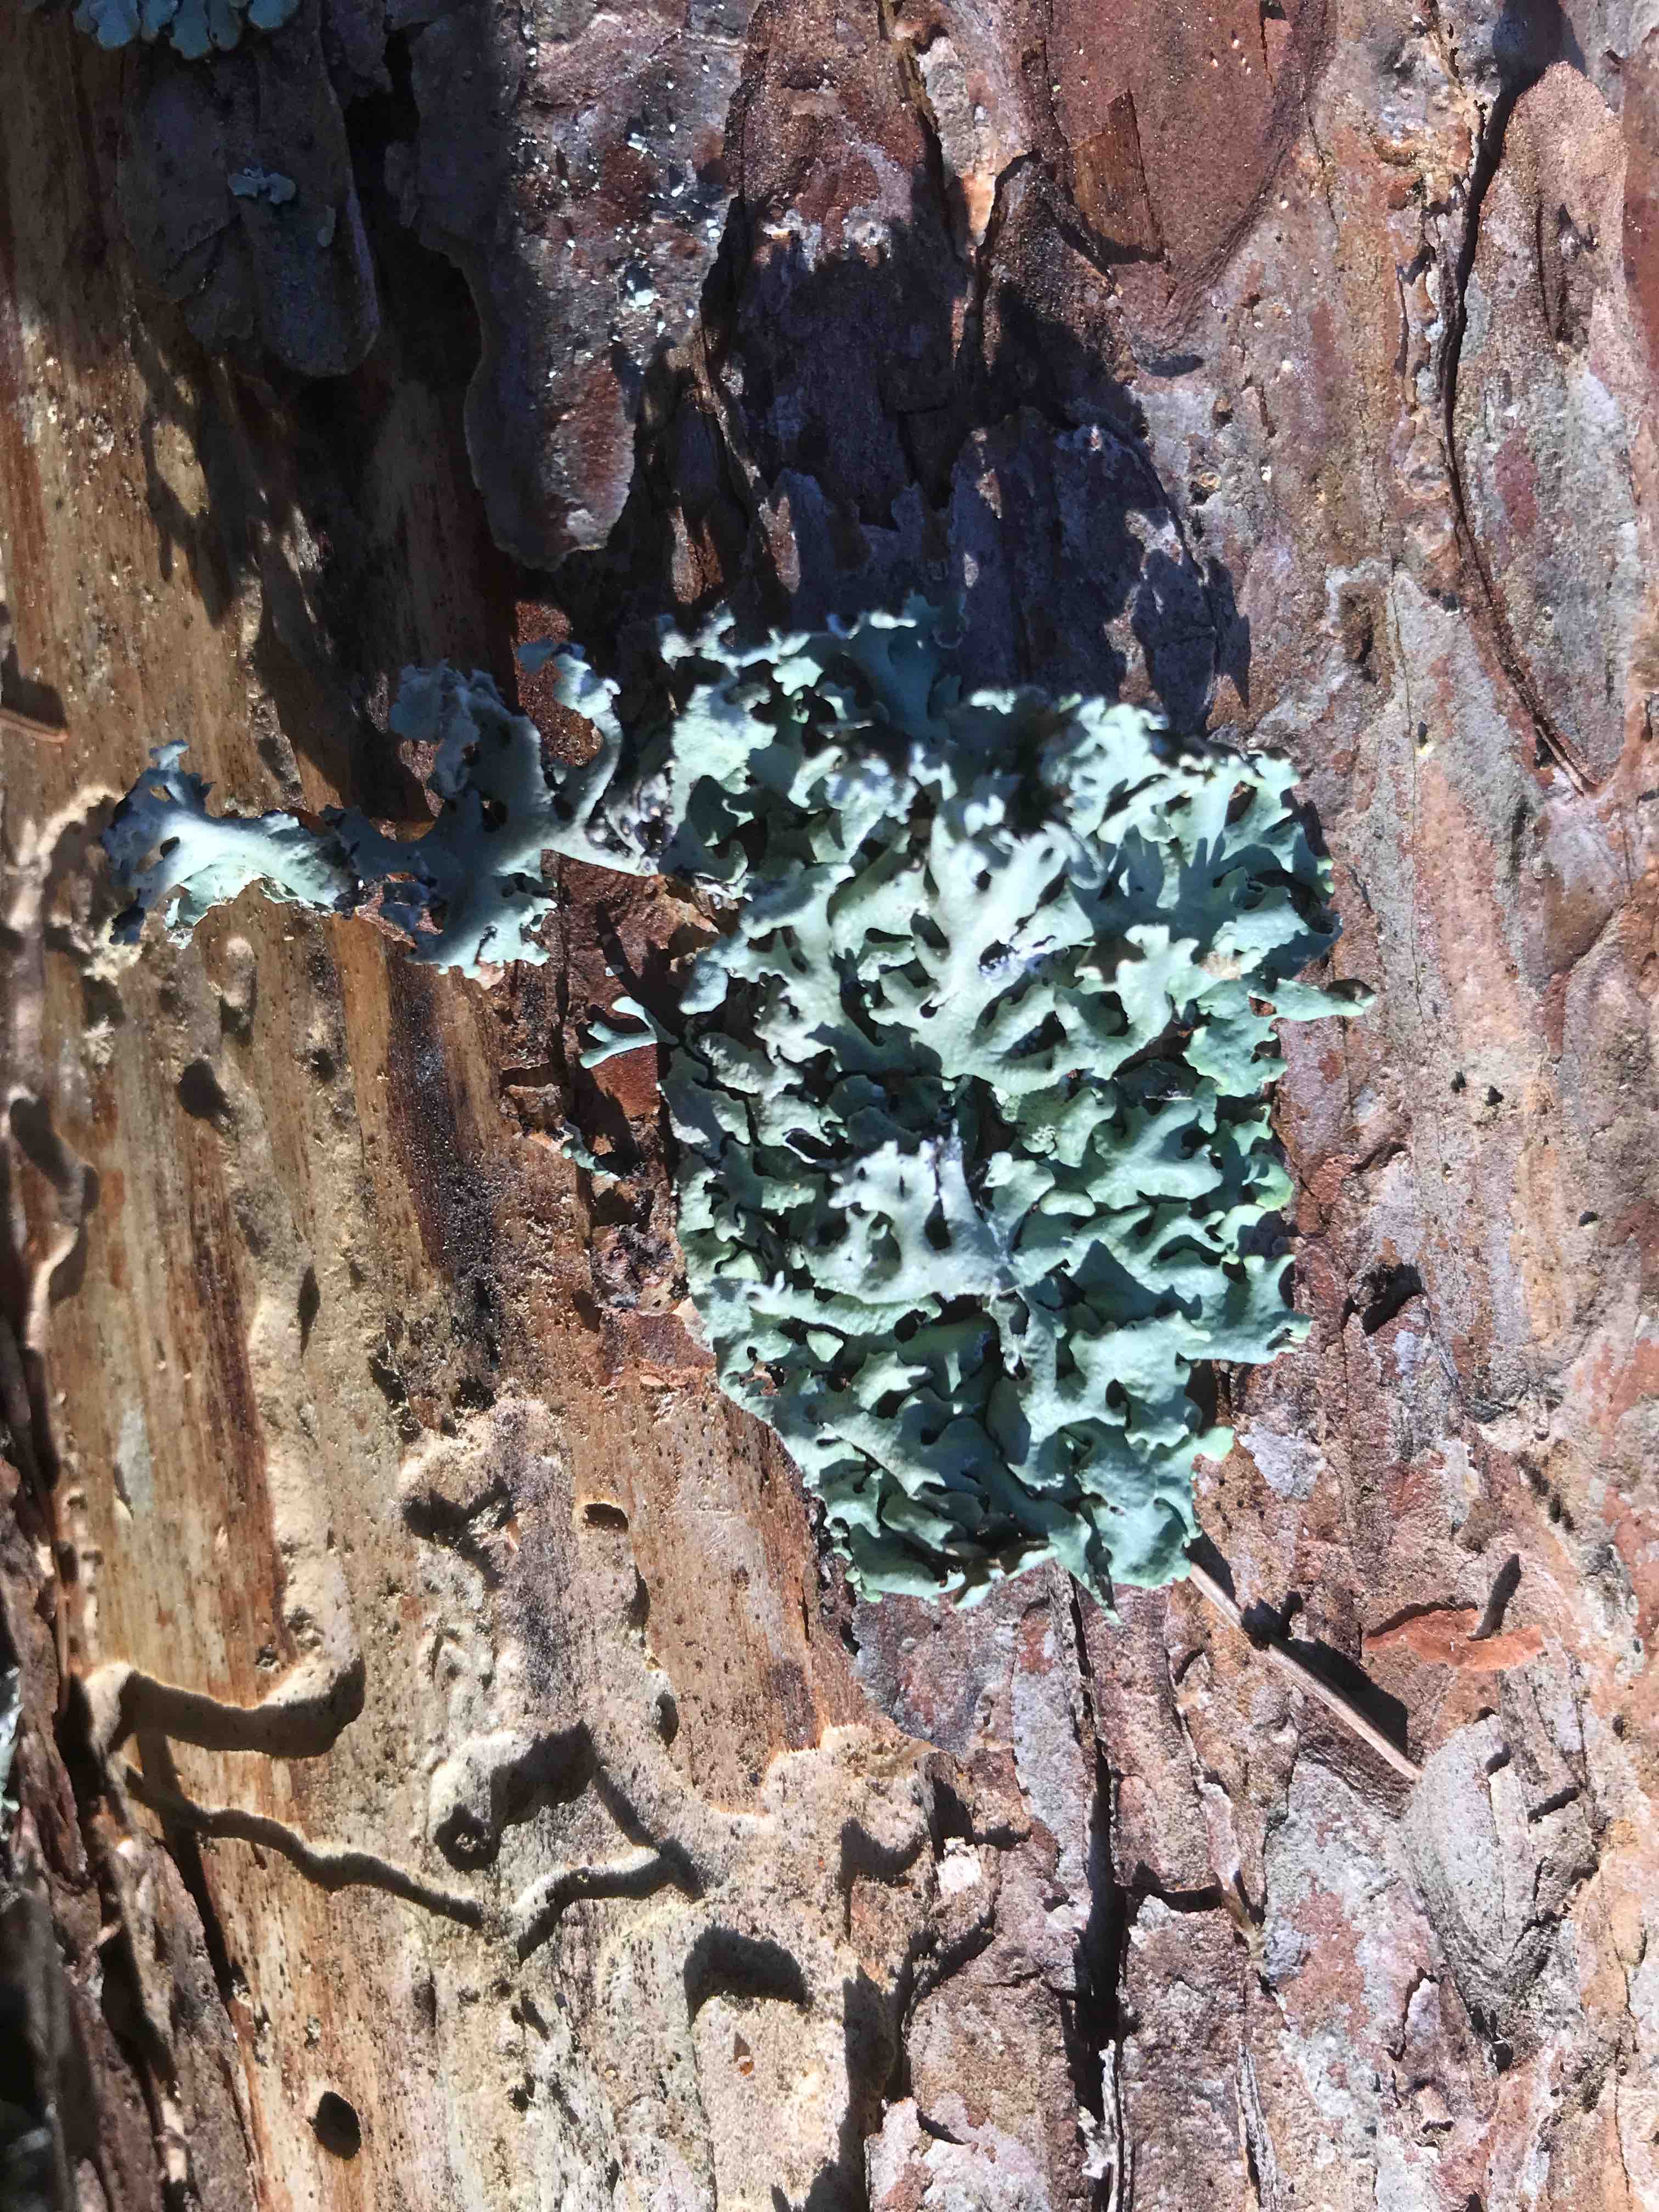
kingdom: Fungi
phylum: Ascomycota
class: Lecanoromycetes
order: Lecanorales
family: Parmeliaceae
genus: Hypogymnia
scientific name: Hypogymnia physodes
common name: almindelig kvistlav
